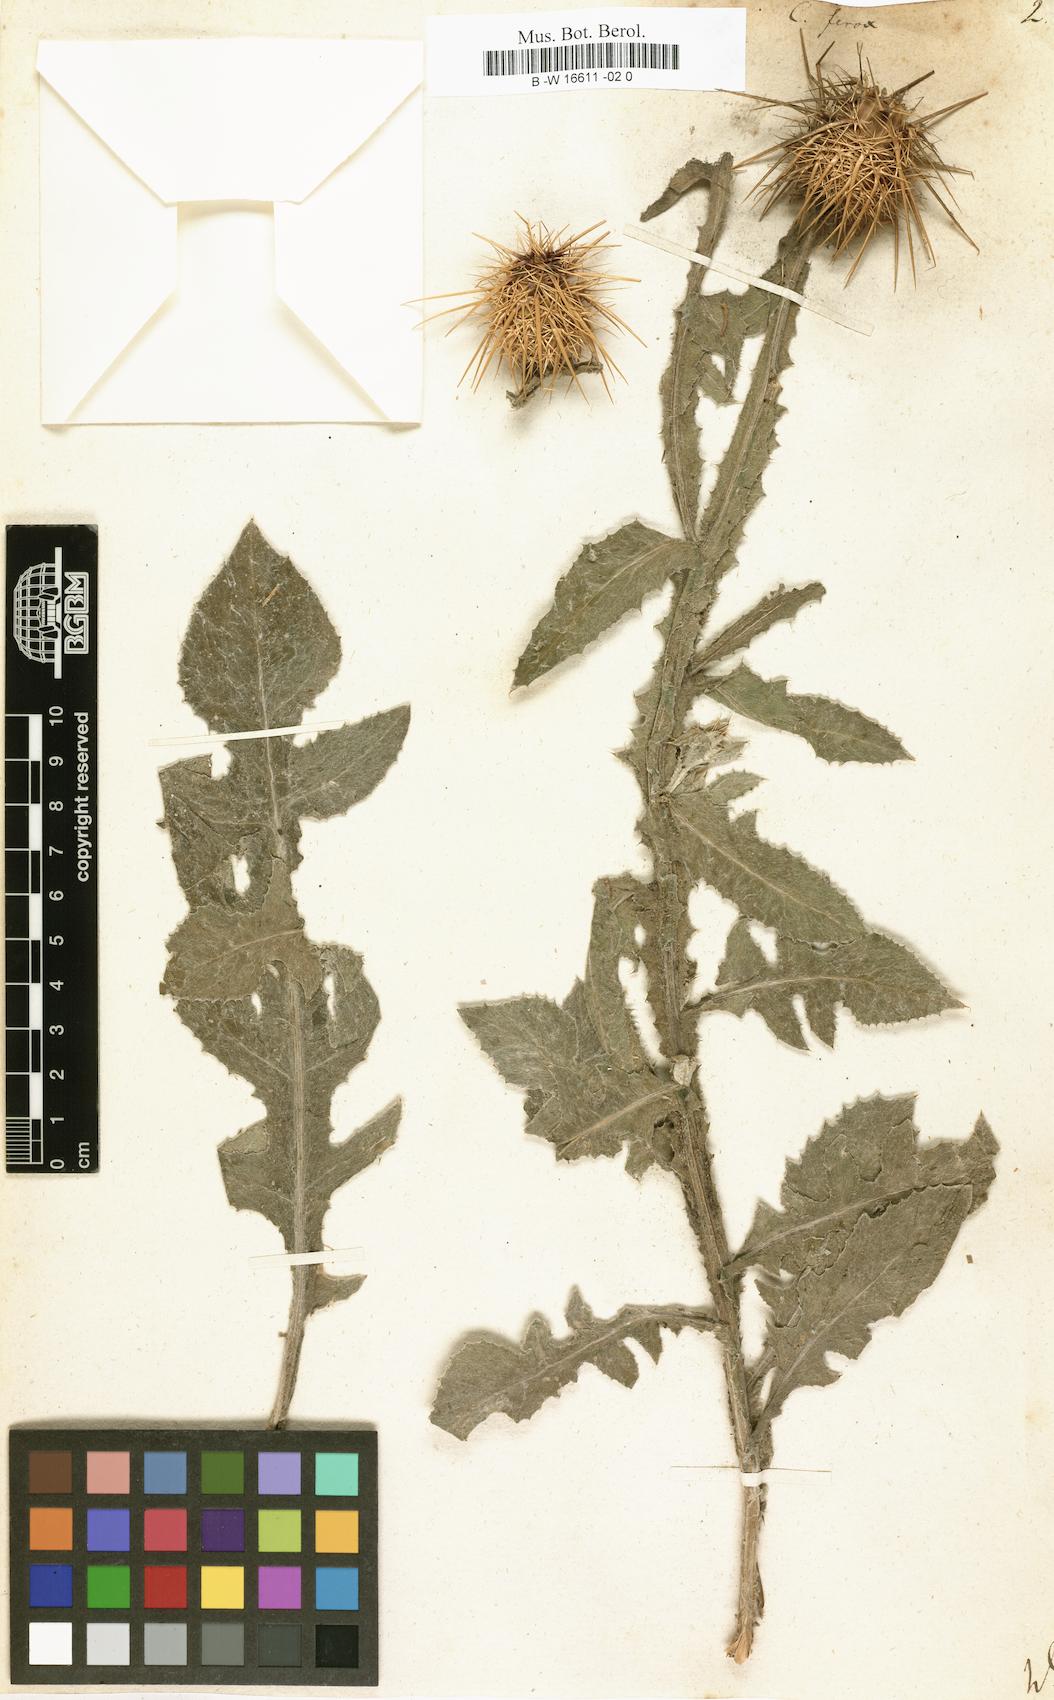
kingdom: Plantae
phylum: Tracheophyta
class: Magnoliopsida
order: Asterales
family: Asteraceae
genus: Centaurea
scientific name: Centaurea ferox
